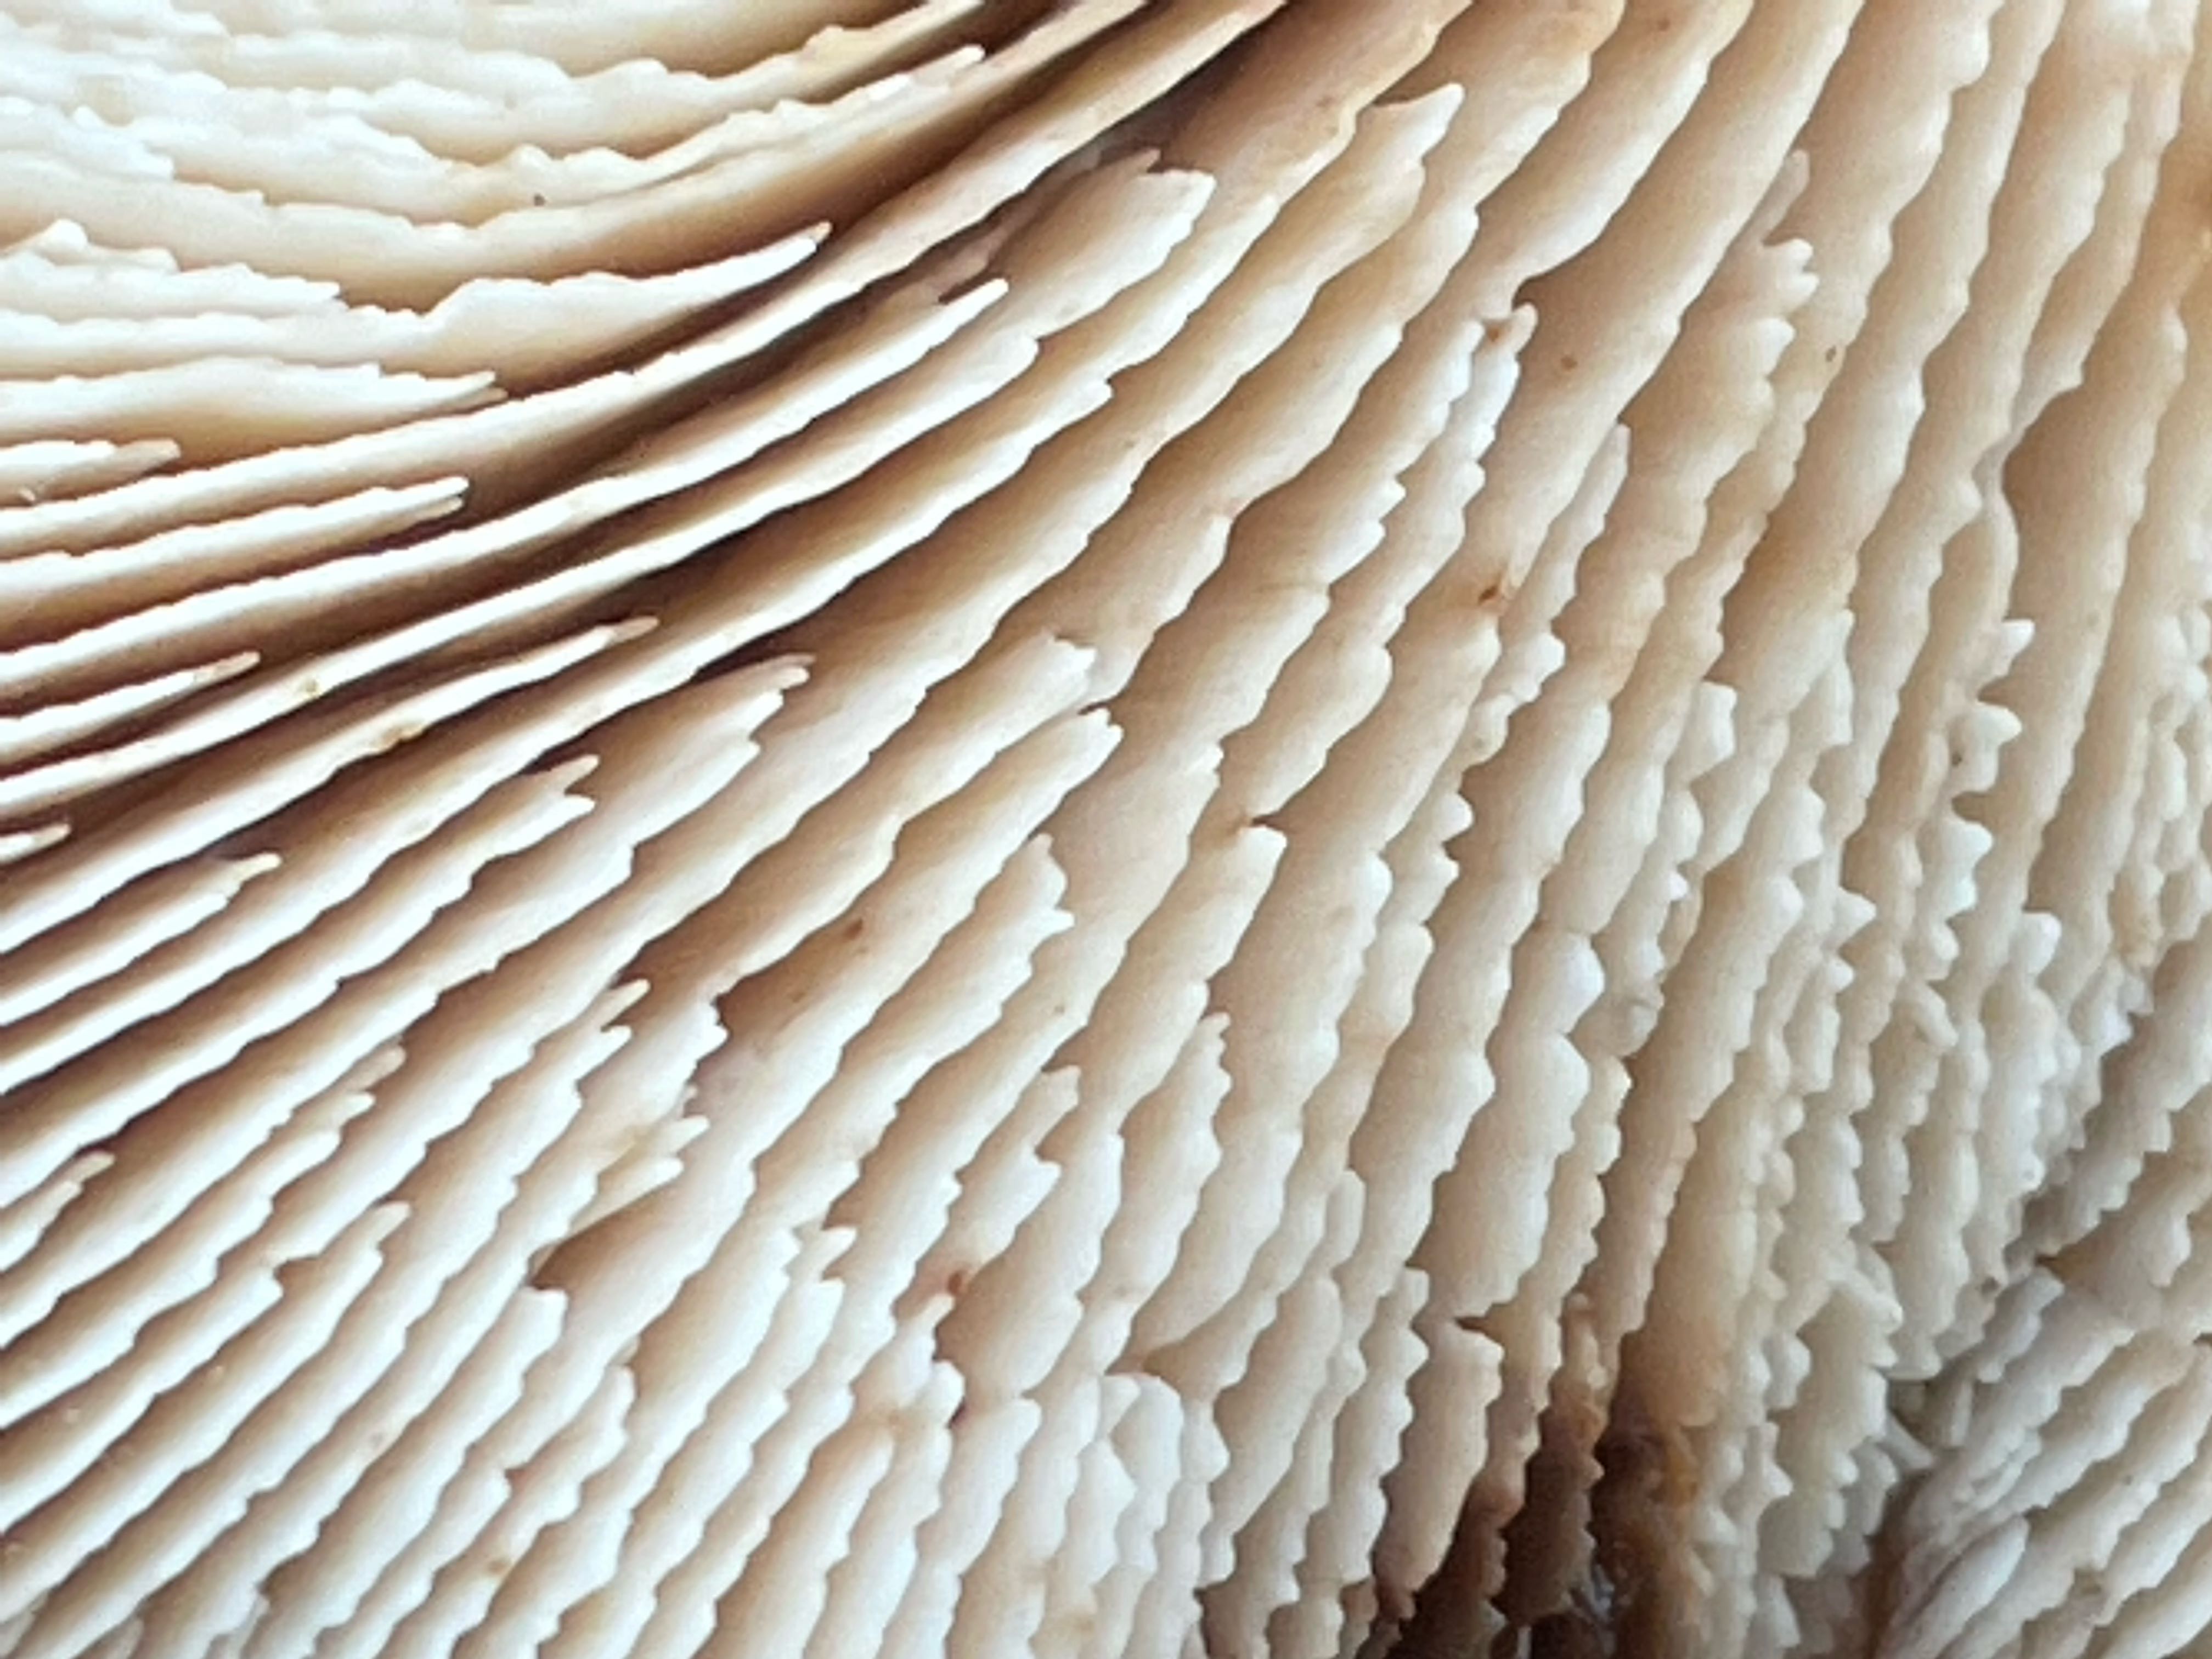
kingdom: Fungi
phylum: Basidiomycota
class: Agaricomycetes
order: Russulales
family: Auriscalpiaceae
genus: Lentinellus
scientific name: Lentinellus cochleatus
